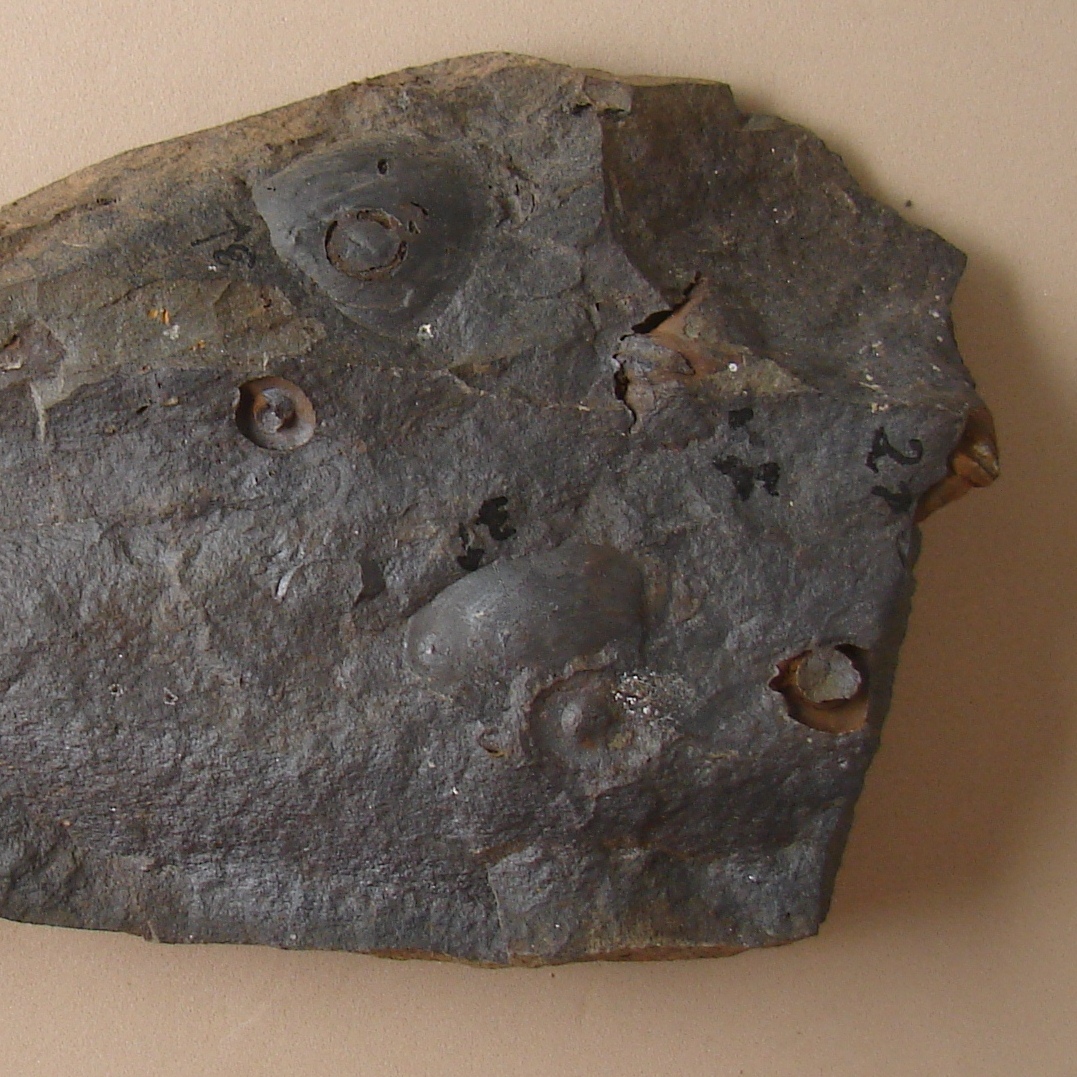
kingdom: Animalia
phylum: Brachiopoda
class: Rhynchonellata
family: Spinocyrtiidae
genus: Subcuspidella
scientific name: Subcuspidella
